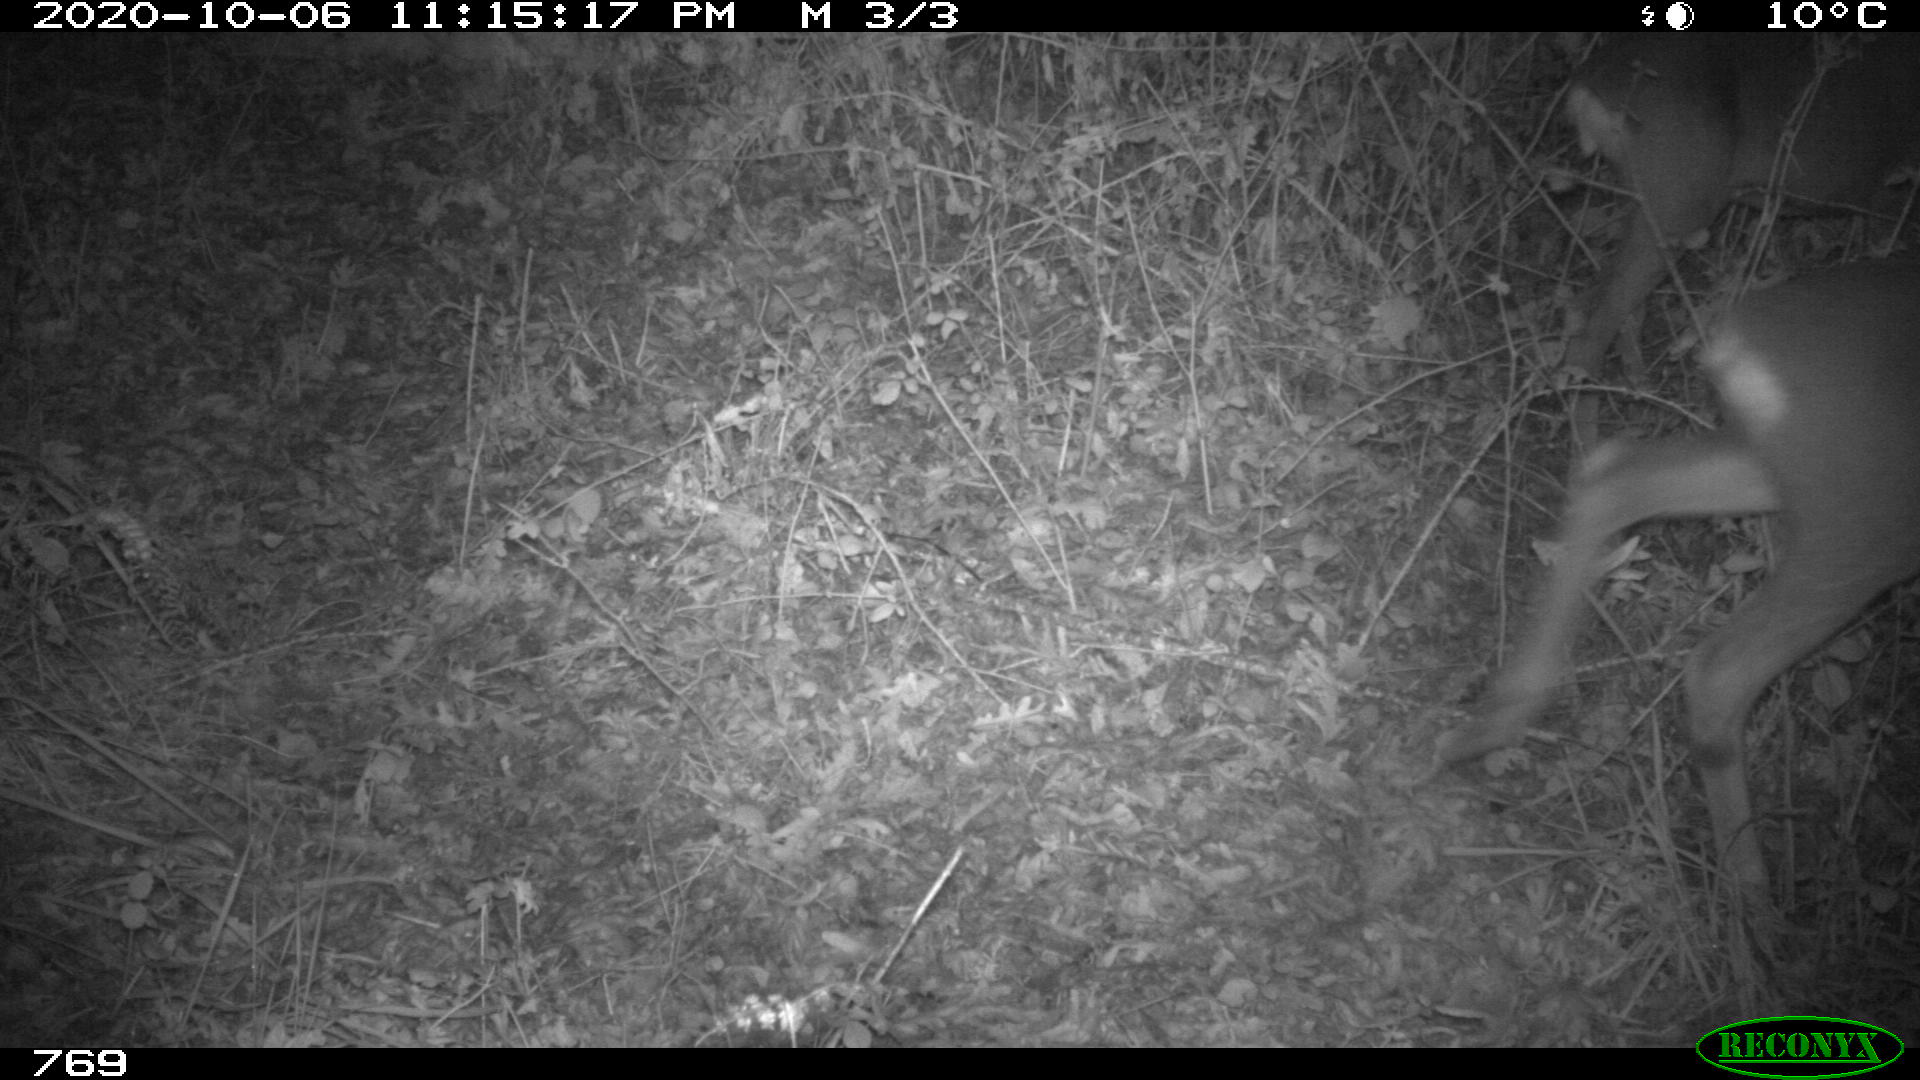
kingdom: Animalia
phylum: Chordata
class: Mammalia
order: Artiodactyla
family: Cervidae
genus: Capreolus
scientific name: Capreolus capreolus
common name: Western roe deer
